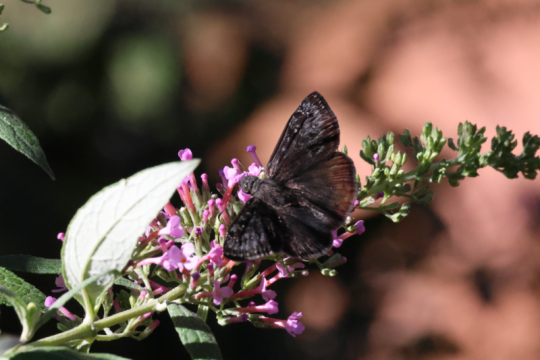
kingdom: Animalia
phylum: Arthropoda
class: Insecta
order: Lepidoptera
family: Hesperiidae
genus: Erynnis
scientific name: Erynnis pacuvius
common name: Pacuvius Duskywing
